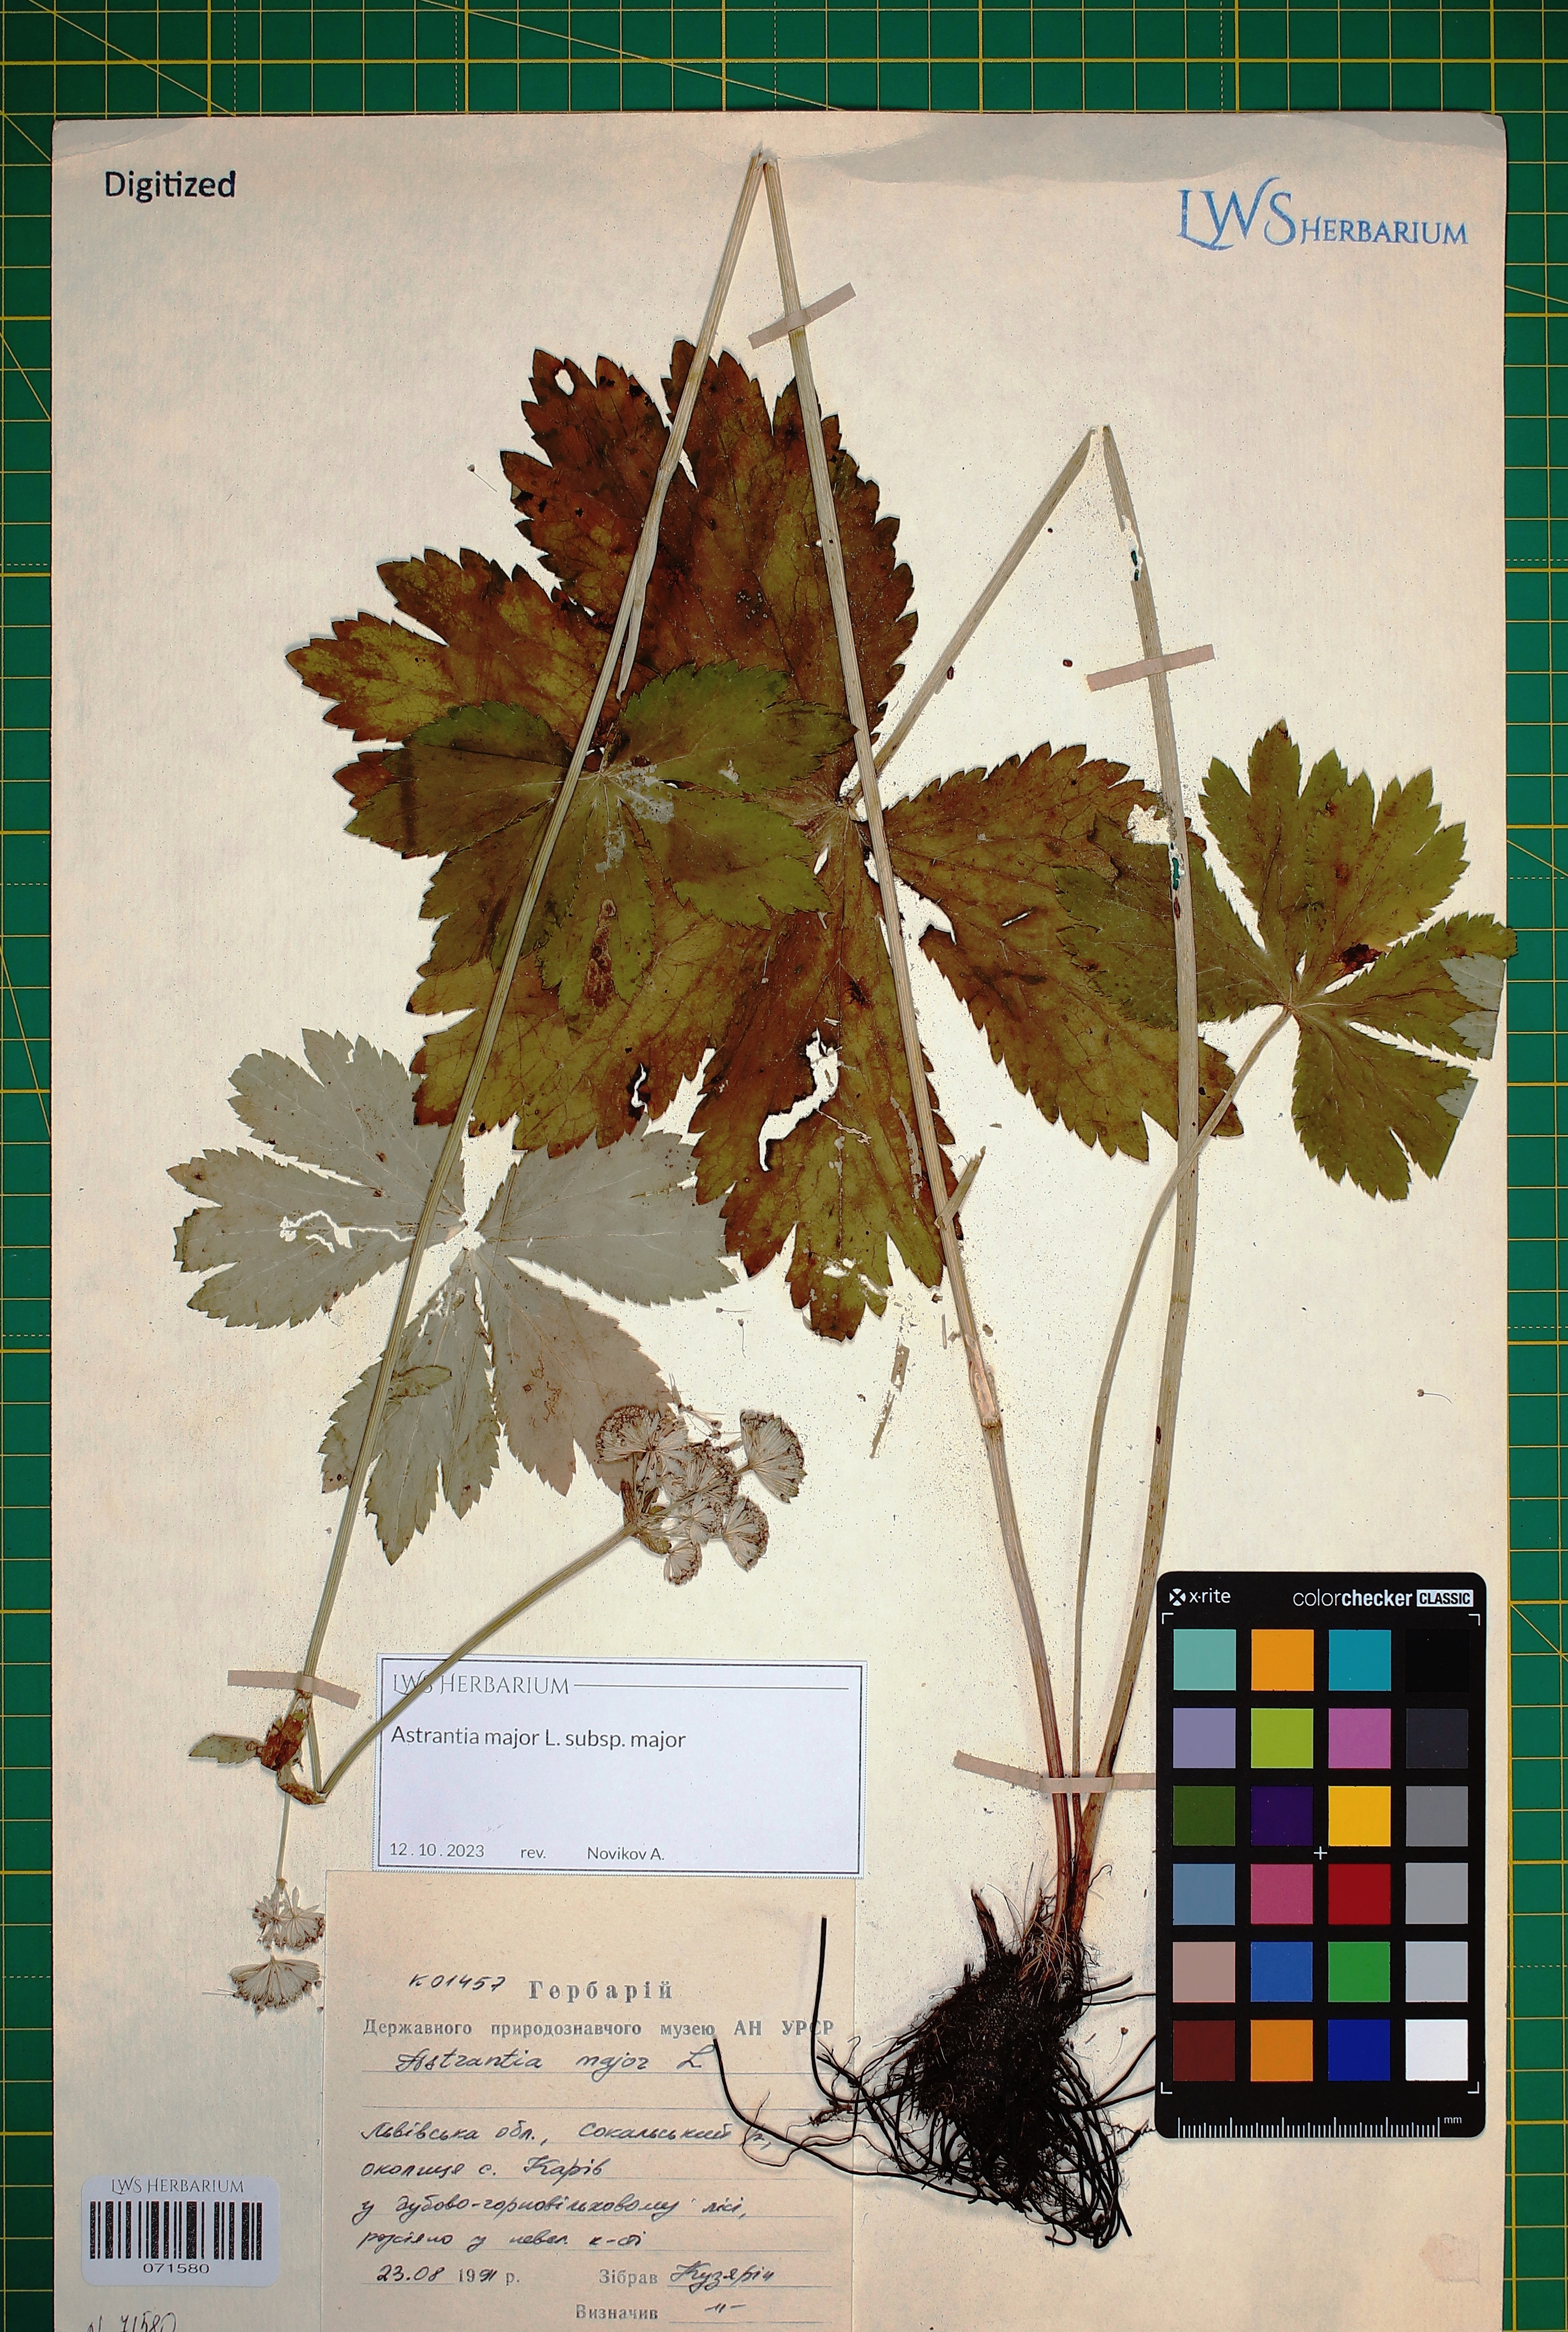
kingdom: Plantae
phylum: Tracheophyta
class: Magnoliopsida
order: Apiales
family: Apiaceae
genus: Astrantia
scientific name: Astrantia major
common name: Greater masterwort
